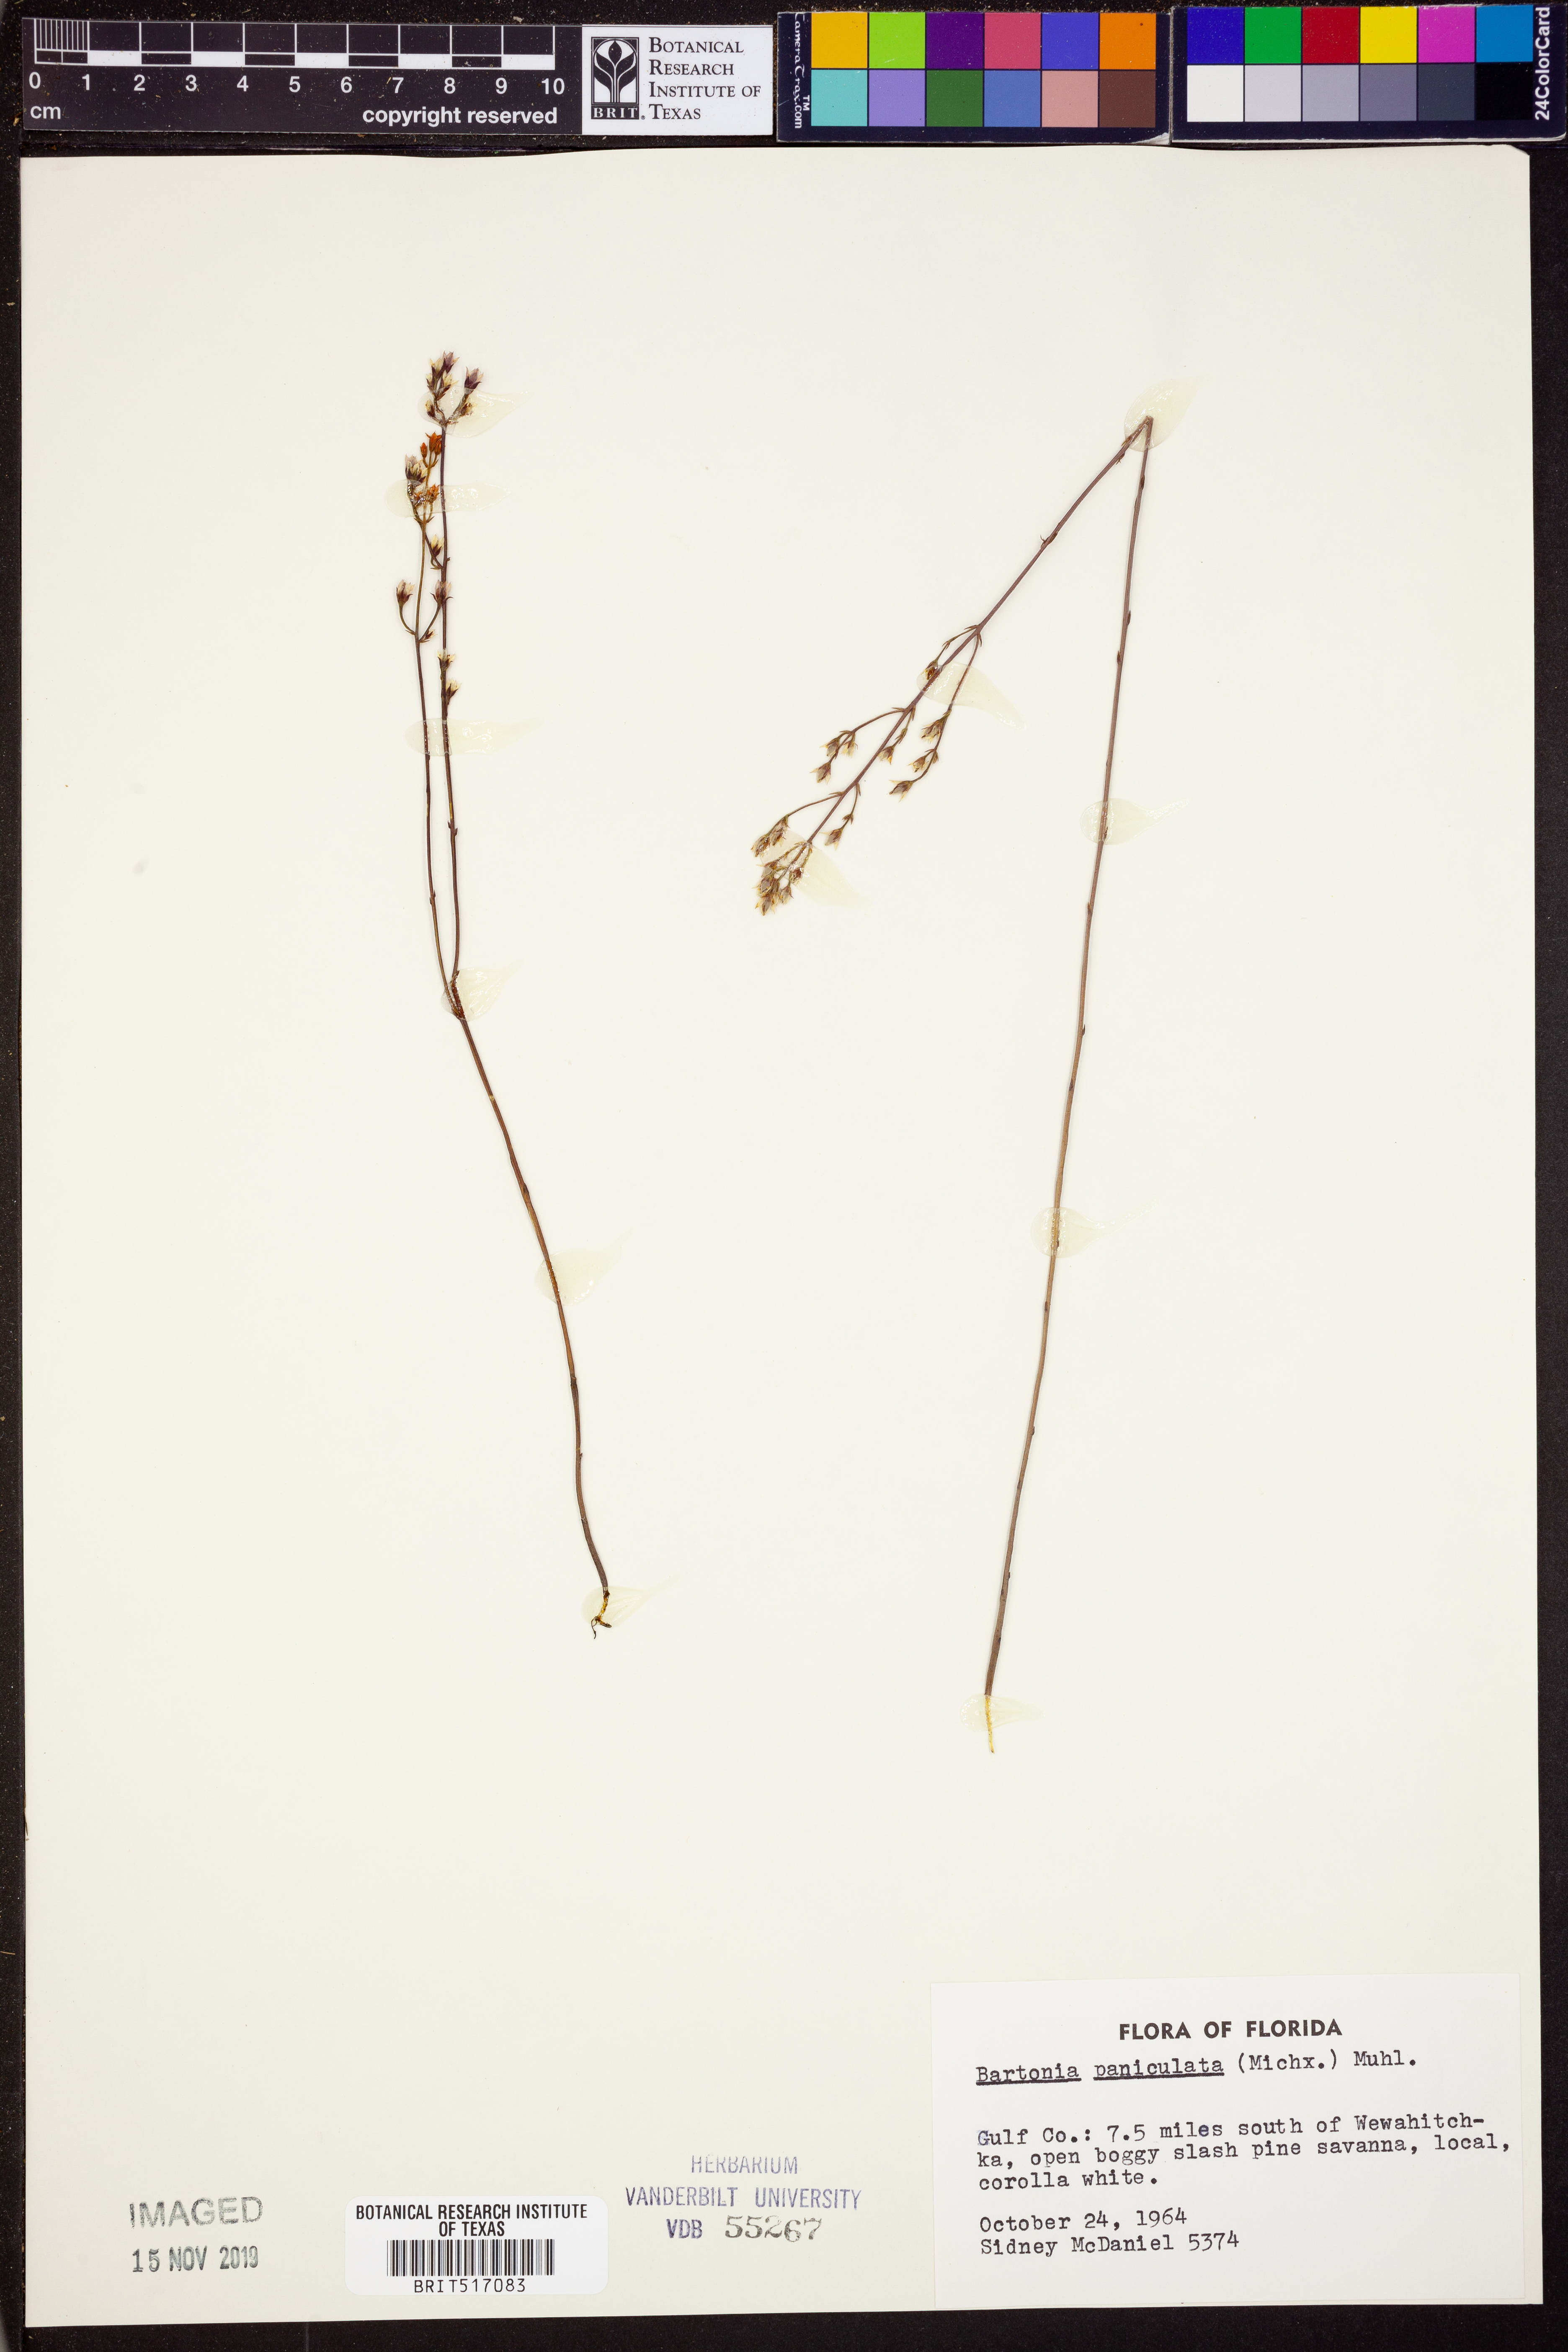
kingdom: Plantae
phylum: Tracheophyta
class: Magnoliopsida
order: Gentianales
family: Gentianaceae
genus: Bartonia
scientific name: Bartonia paniculata
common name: Branched bartonia
